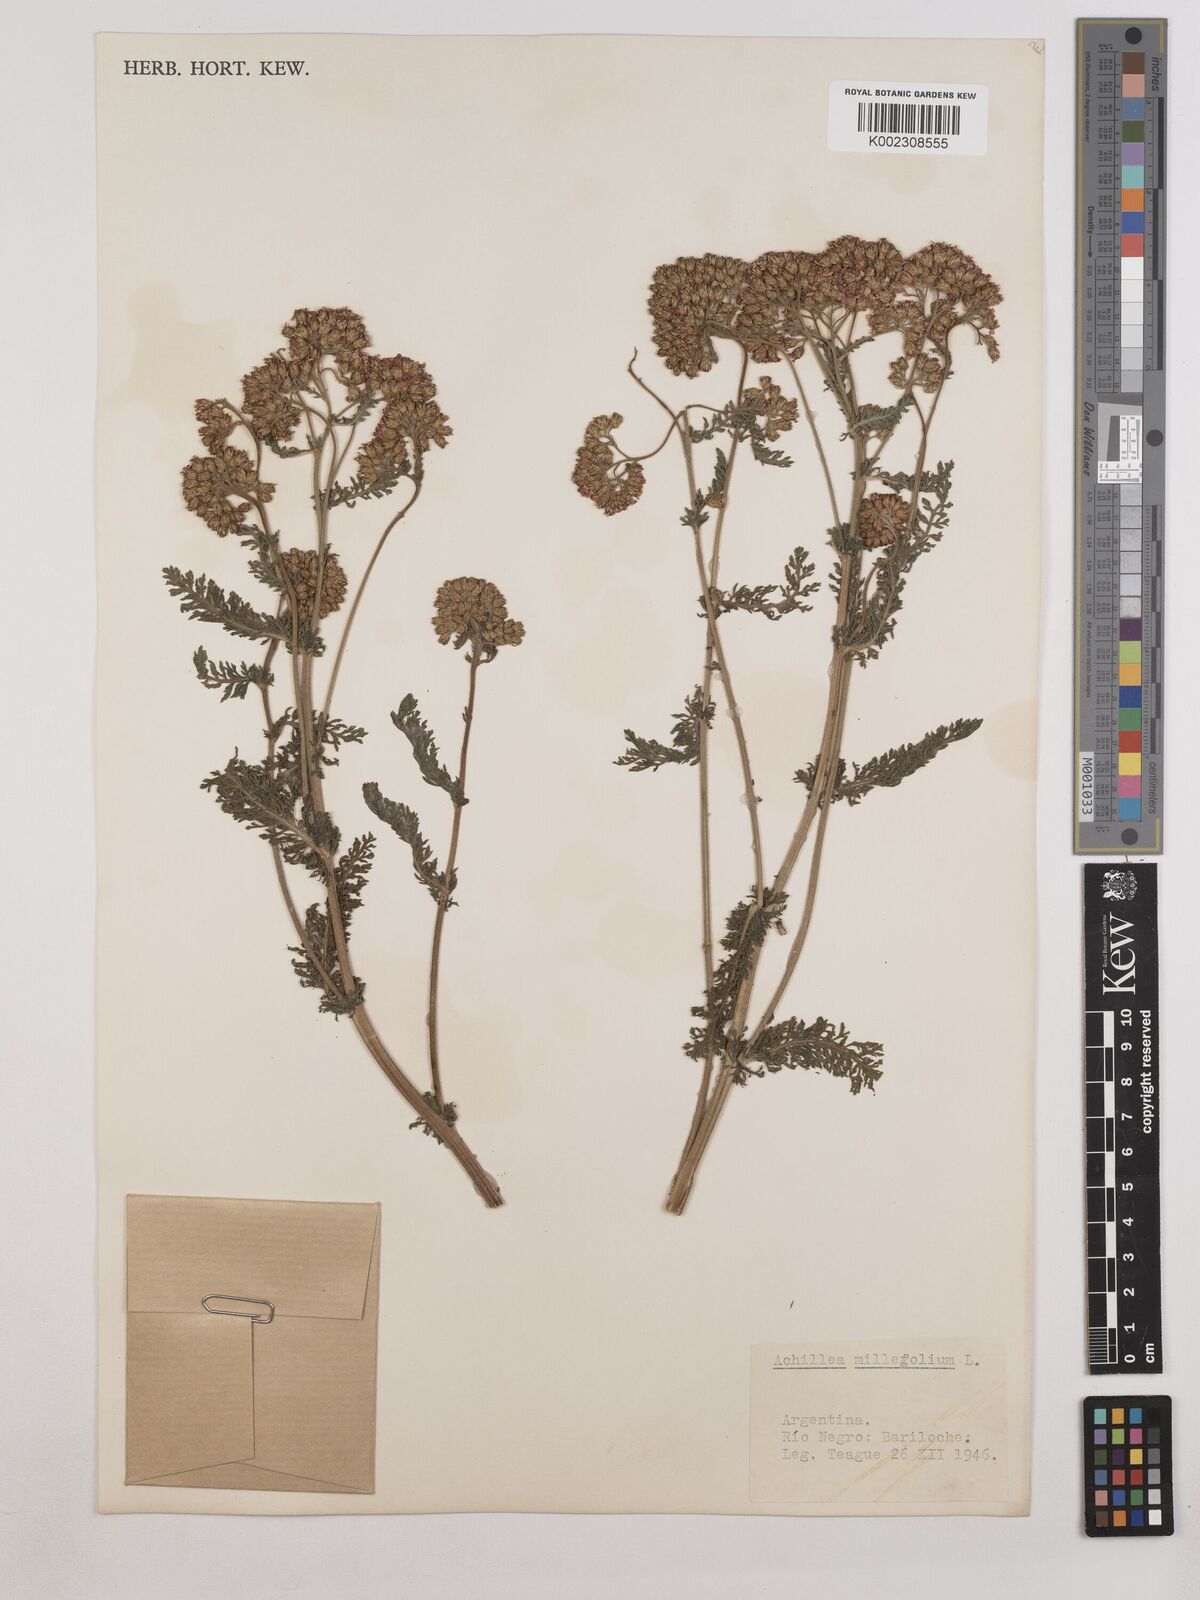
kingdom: Plantae
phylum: Tracheophyta
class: Magnoliopsida
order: Asterales
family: Asteraceae
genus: Achillea
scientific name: Achillea millefolium
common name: Yarrow
